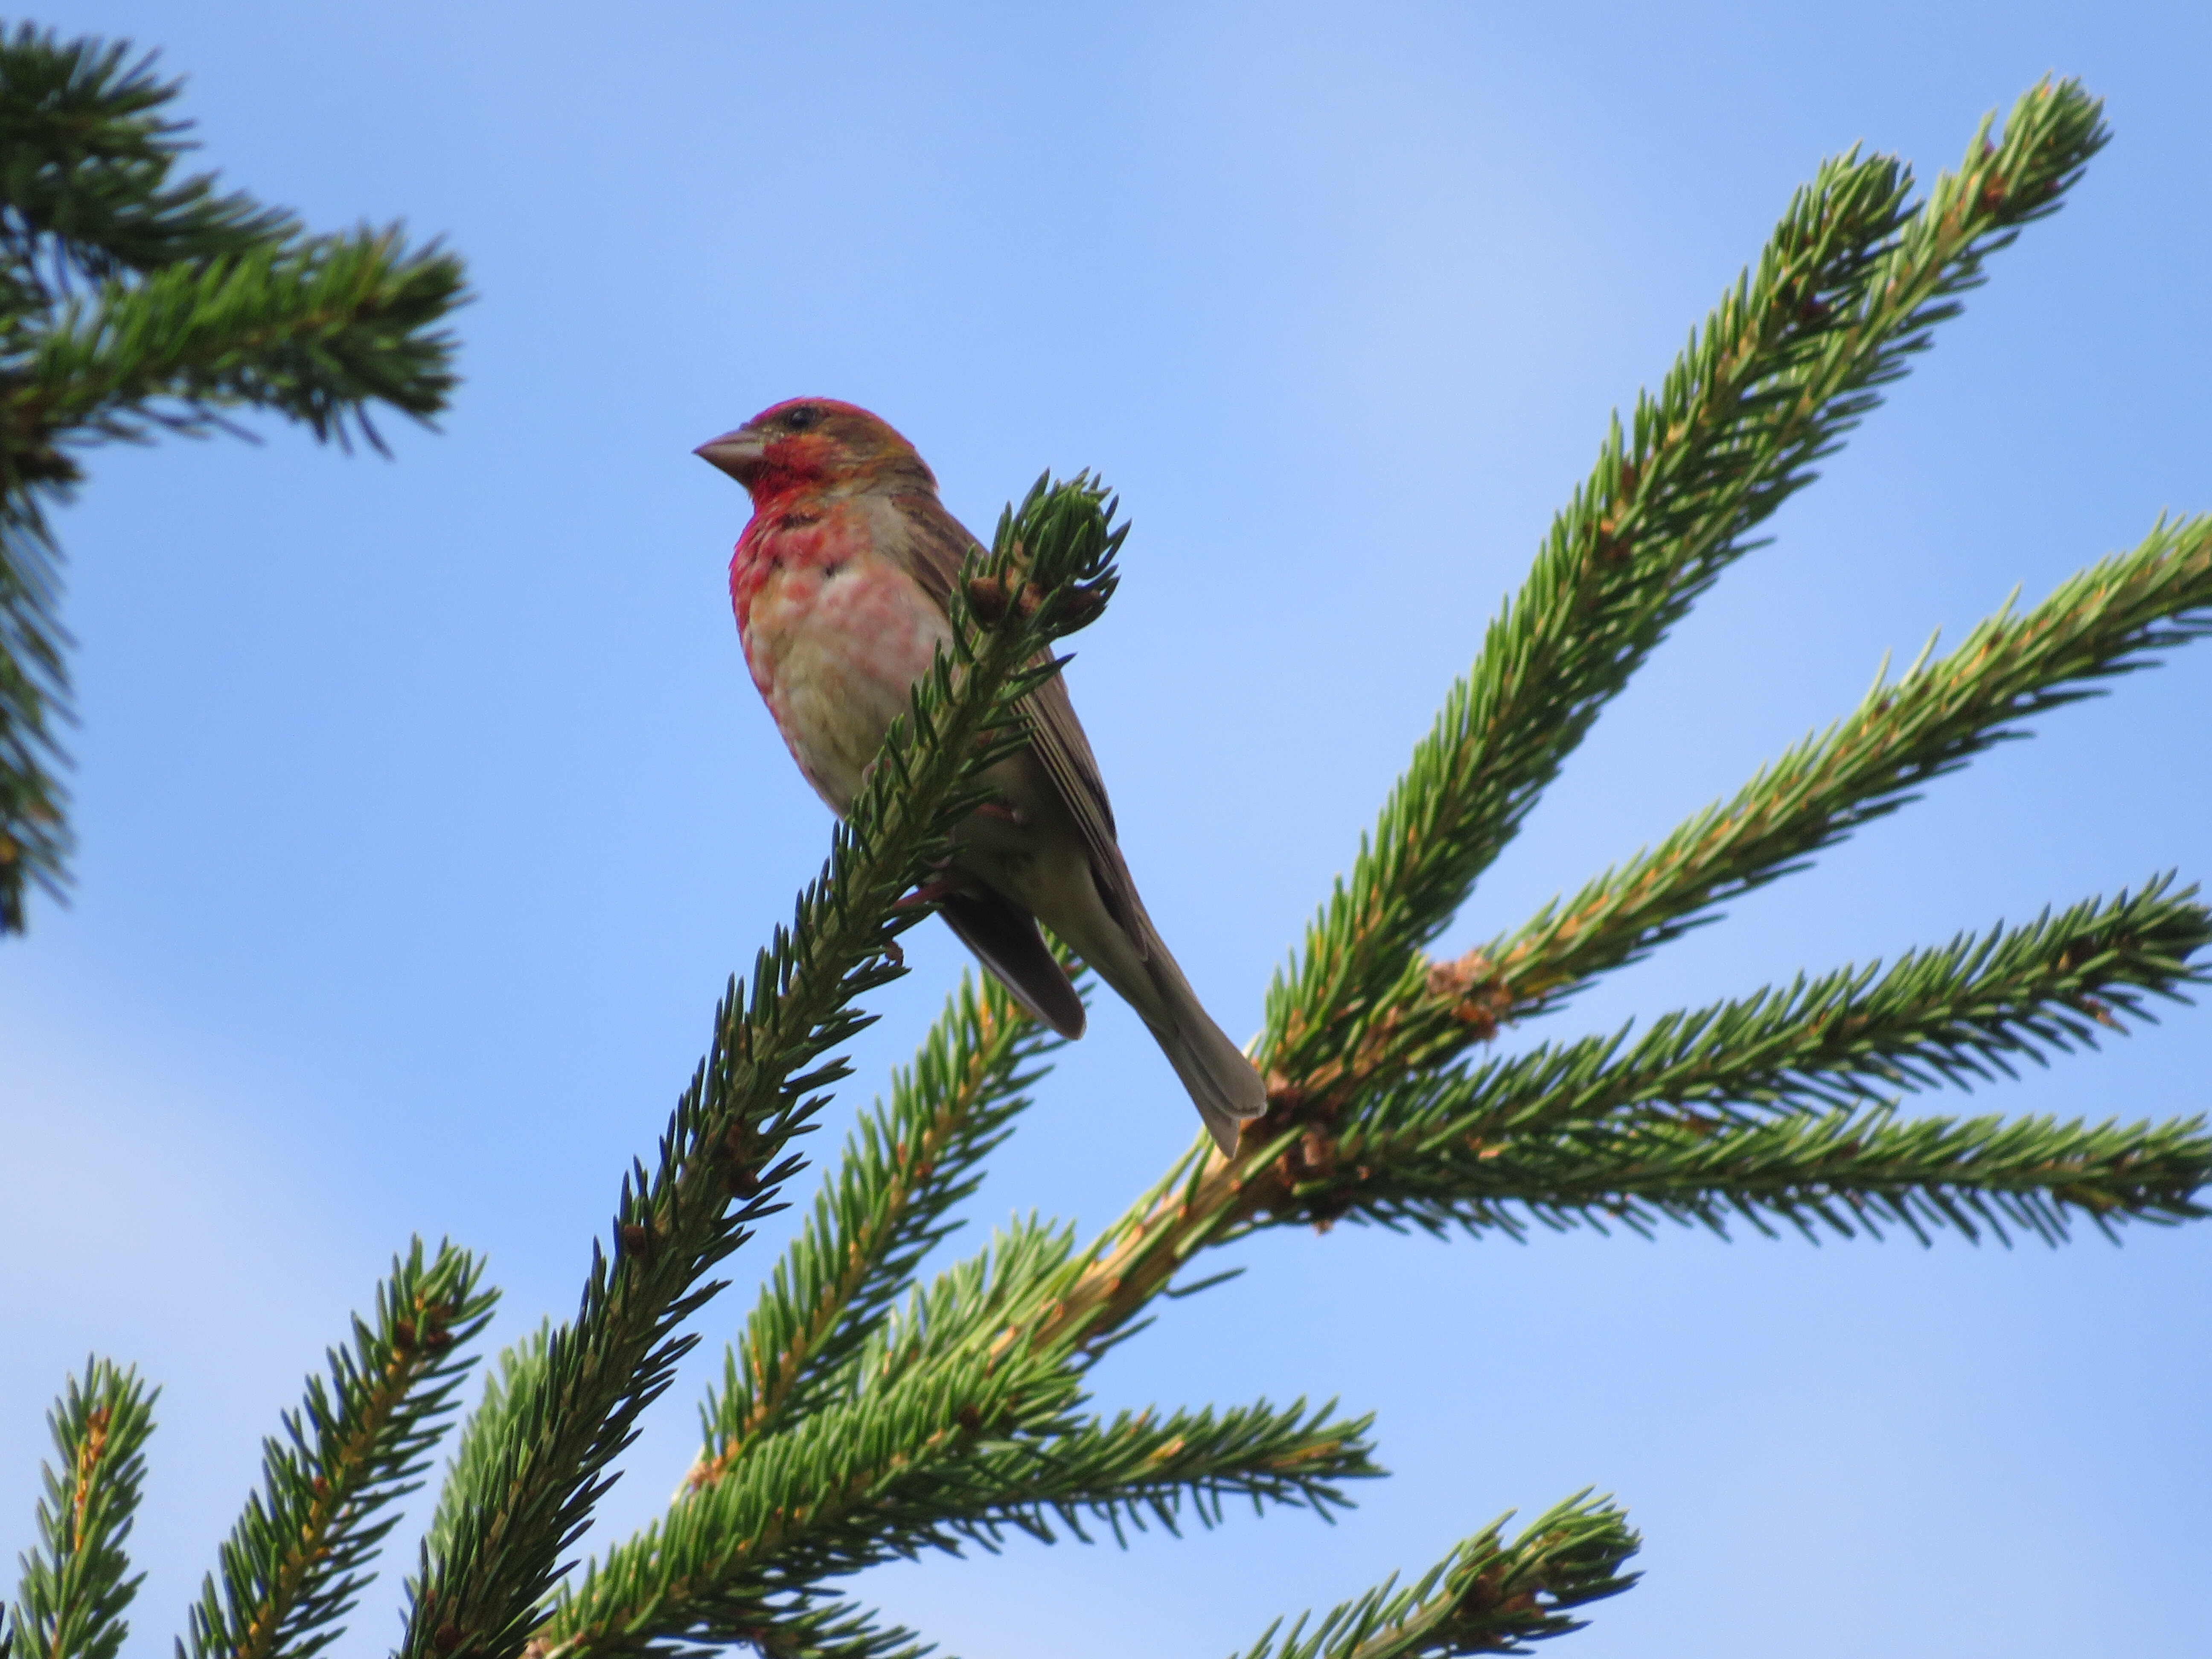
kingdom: Animalia
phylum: Chordata
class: Aves
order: Passeriformes
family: Fringillidae
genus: Carpodacus
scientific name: Carpodacus erythrinus
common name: Common rosefinch
